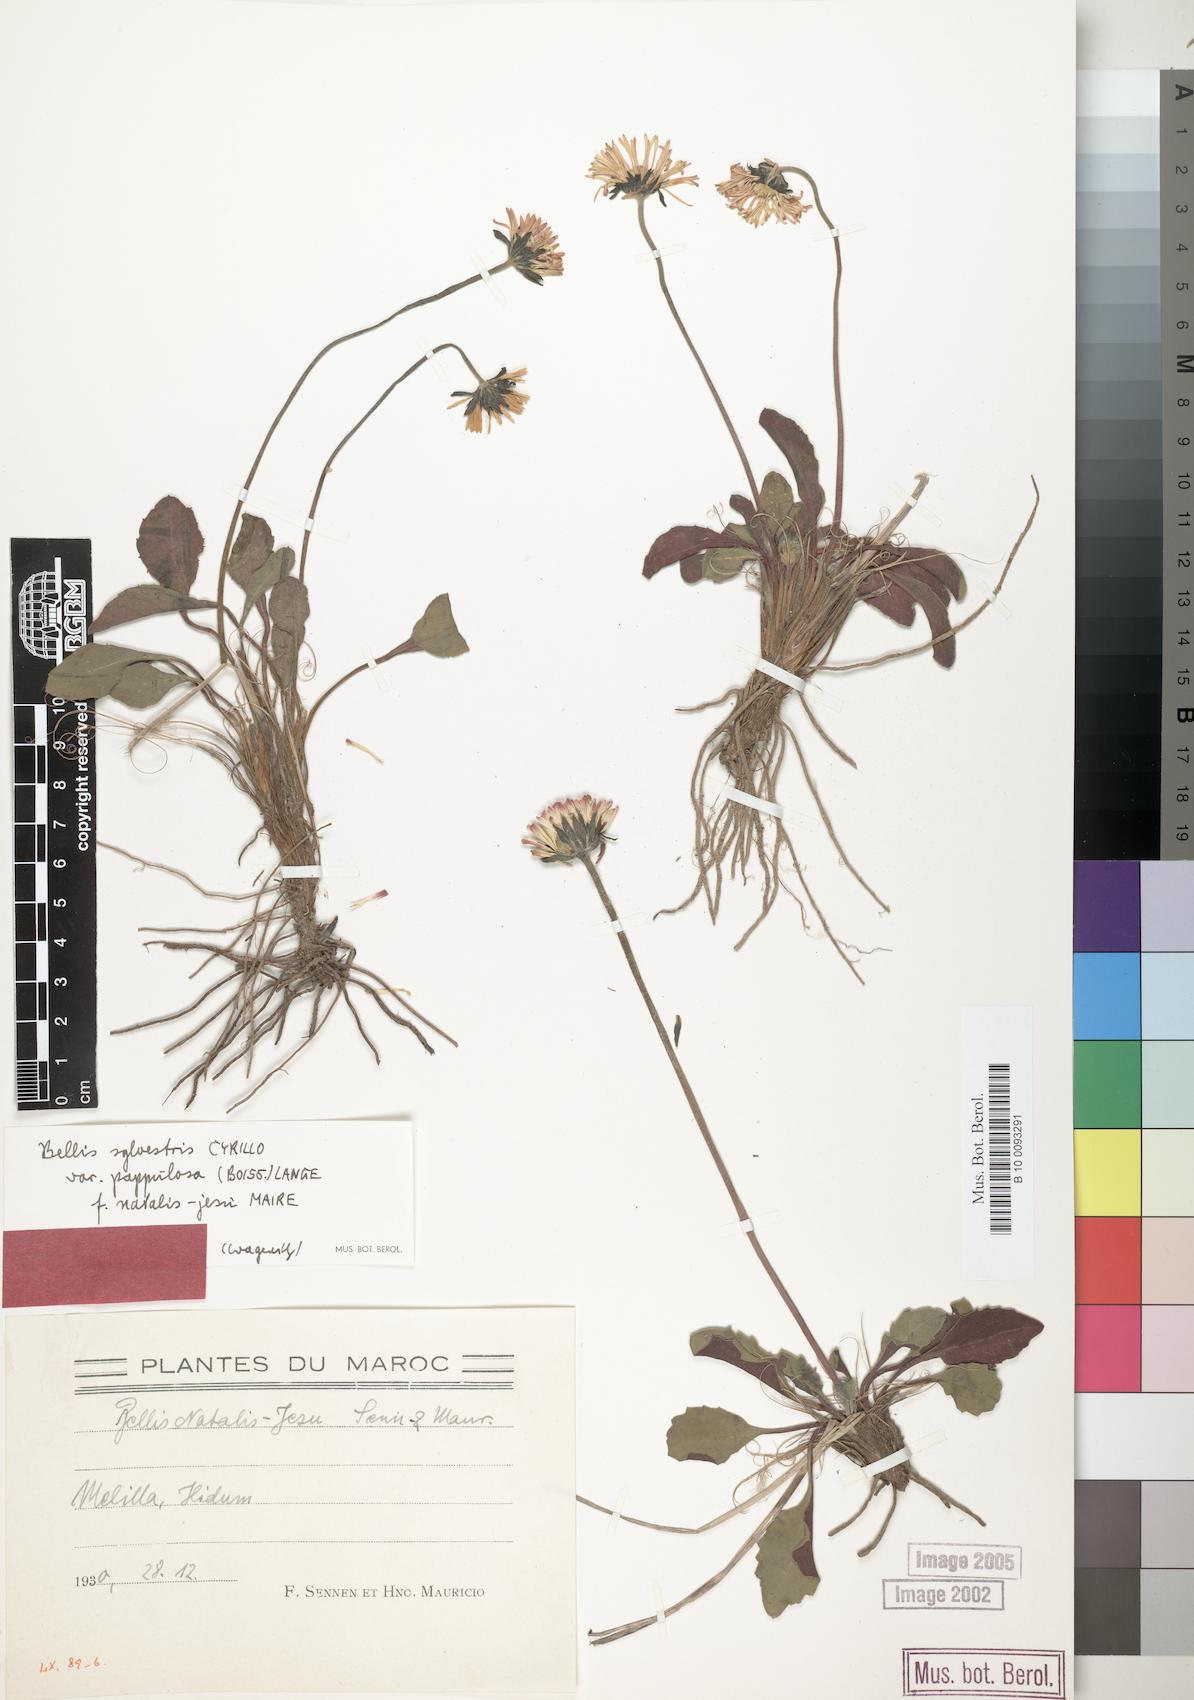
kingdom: Plantae
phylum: Tracheophyta
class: Magnoliopsida
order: Asterales
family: Asteraceae
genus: Bellis
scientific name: Bellis sylvestris
